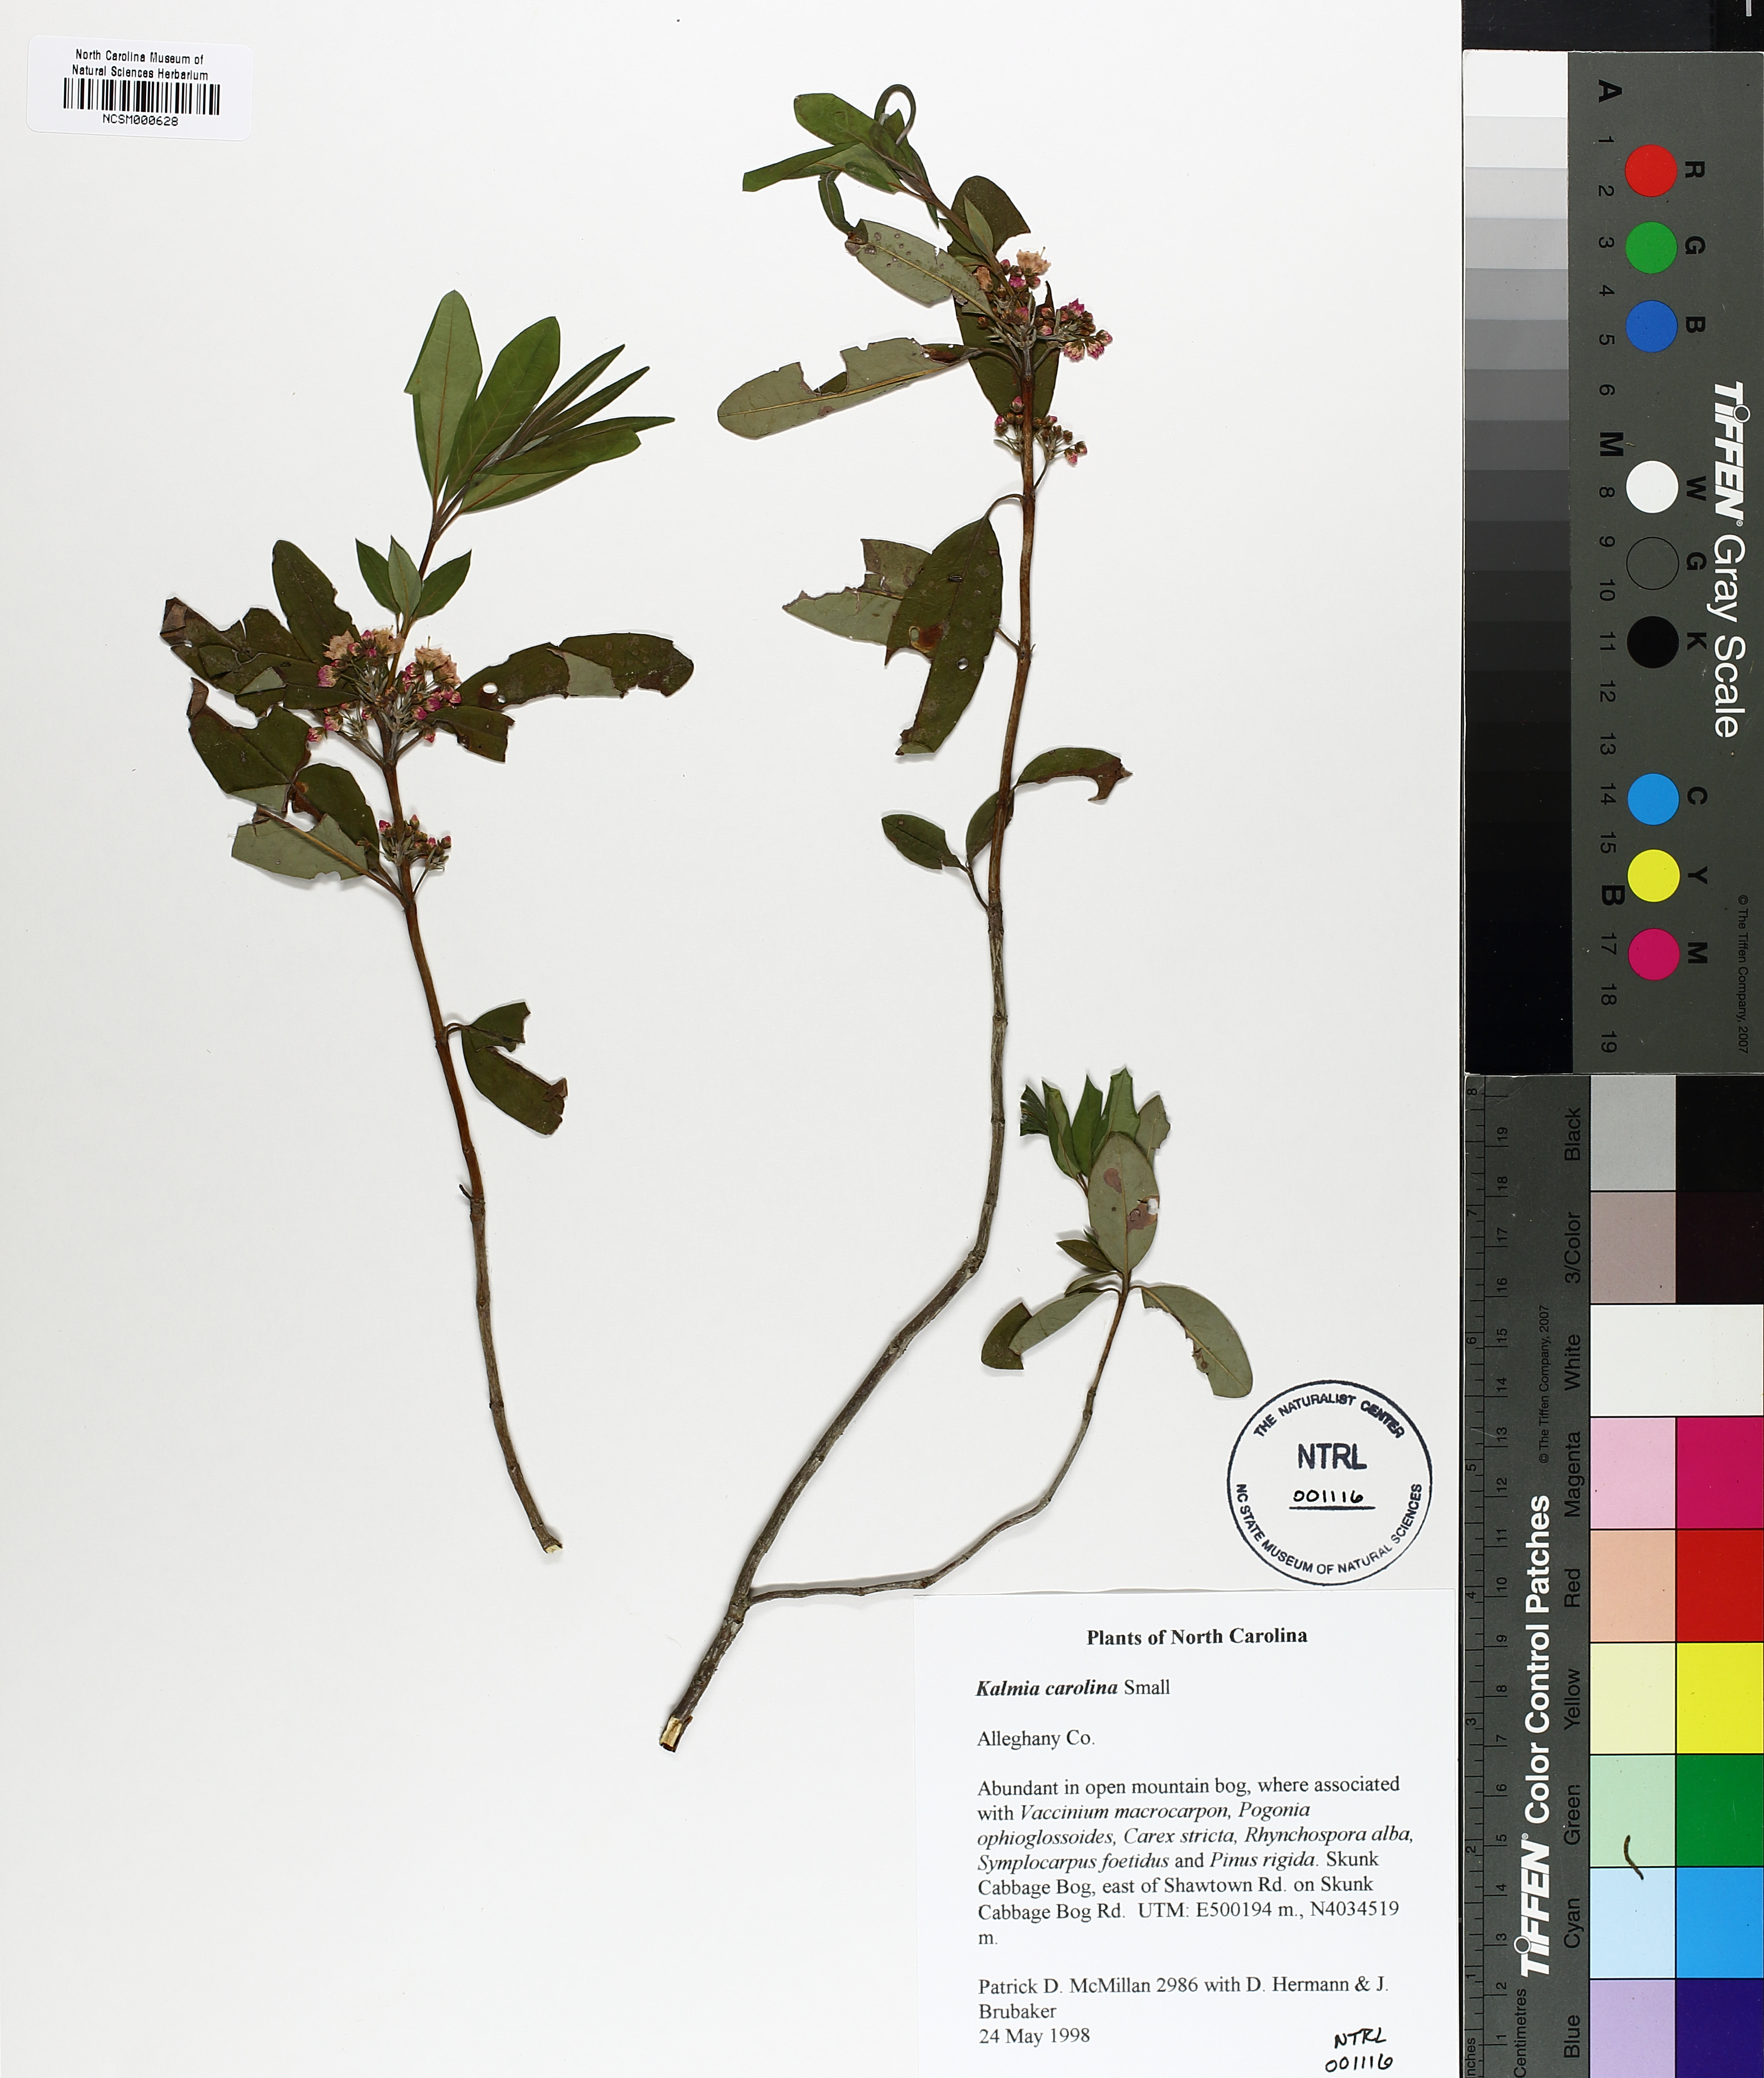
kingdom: Plantae
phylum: Tracheophyta
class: Magnoliopsida
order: Ericales
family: Ericaceae
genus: Kalmia
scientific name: Kalmia angustifolia
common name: Sheep-laurel
